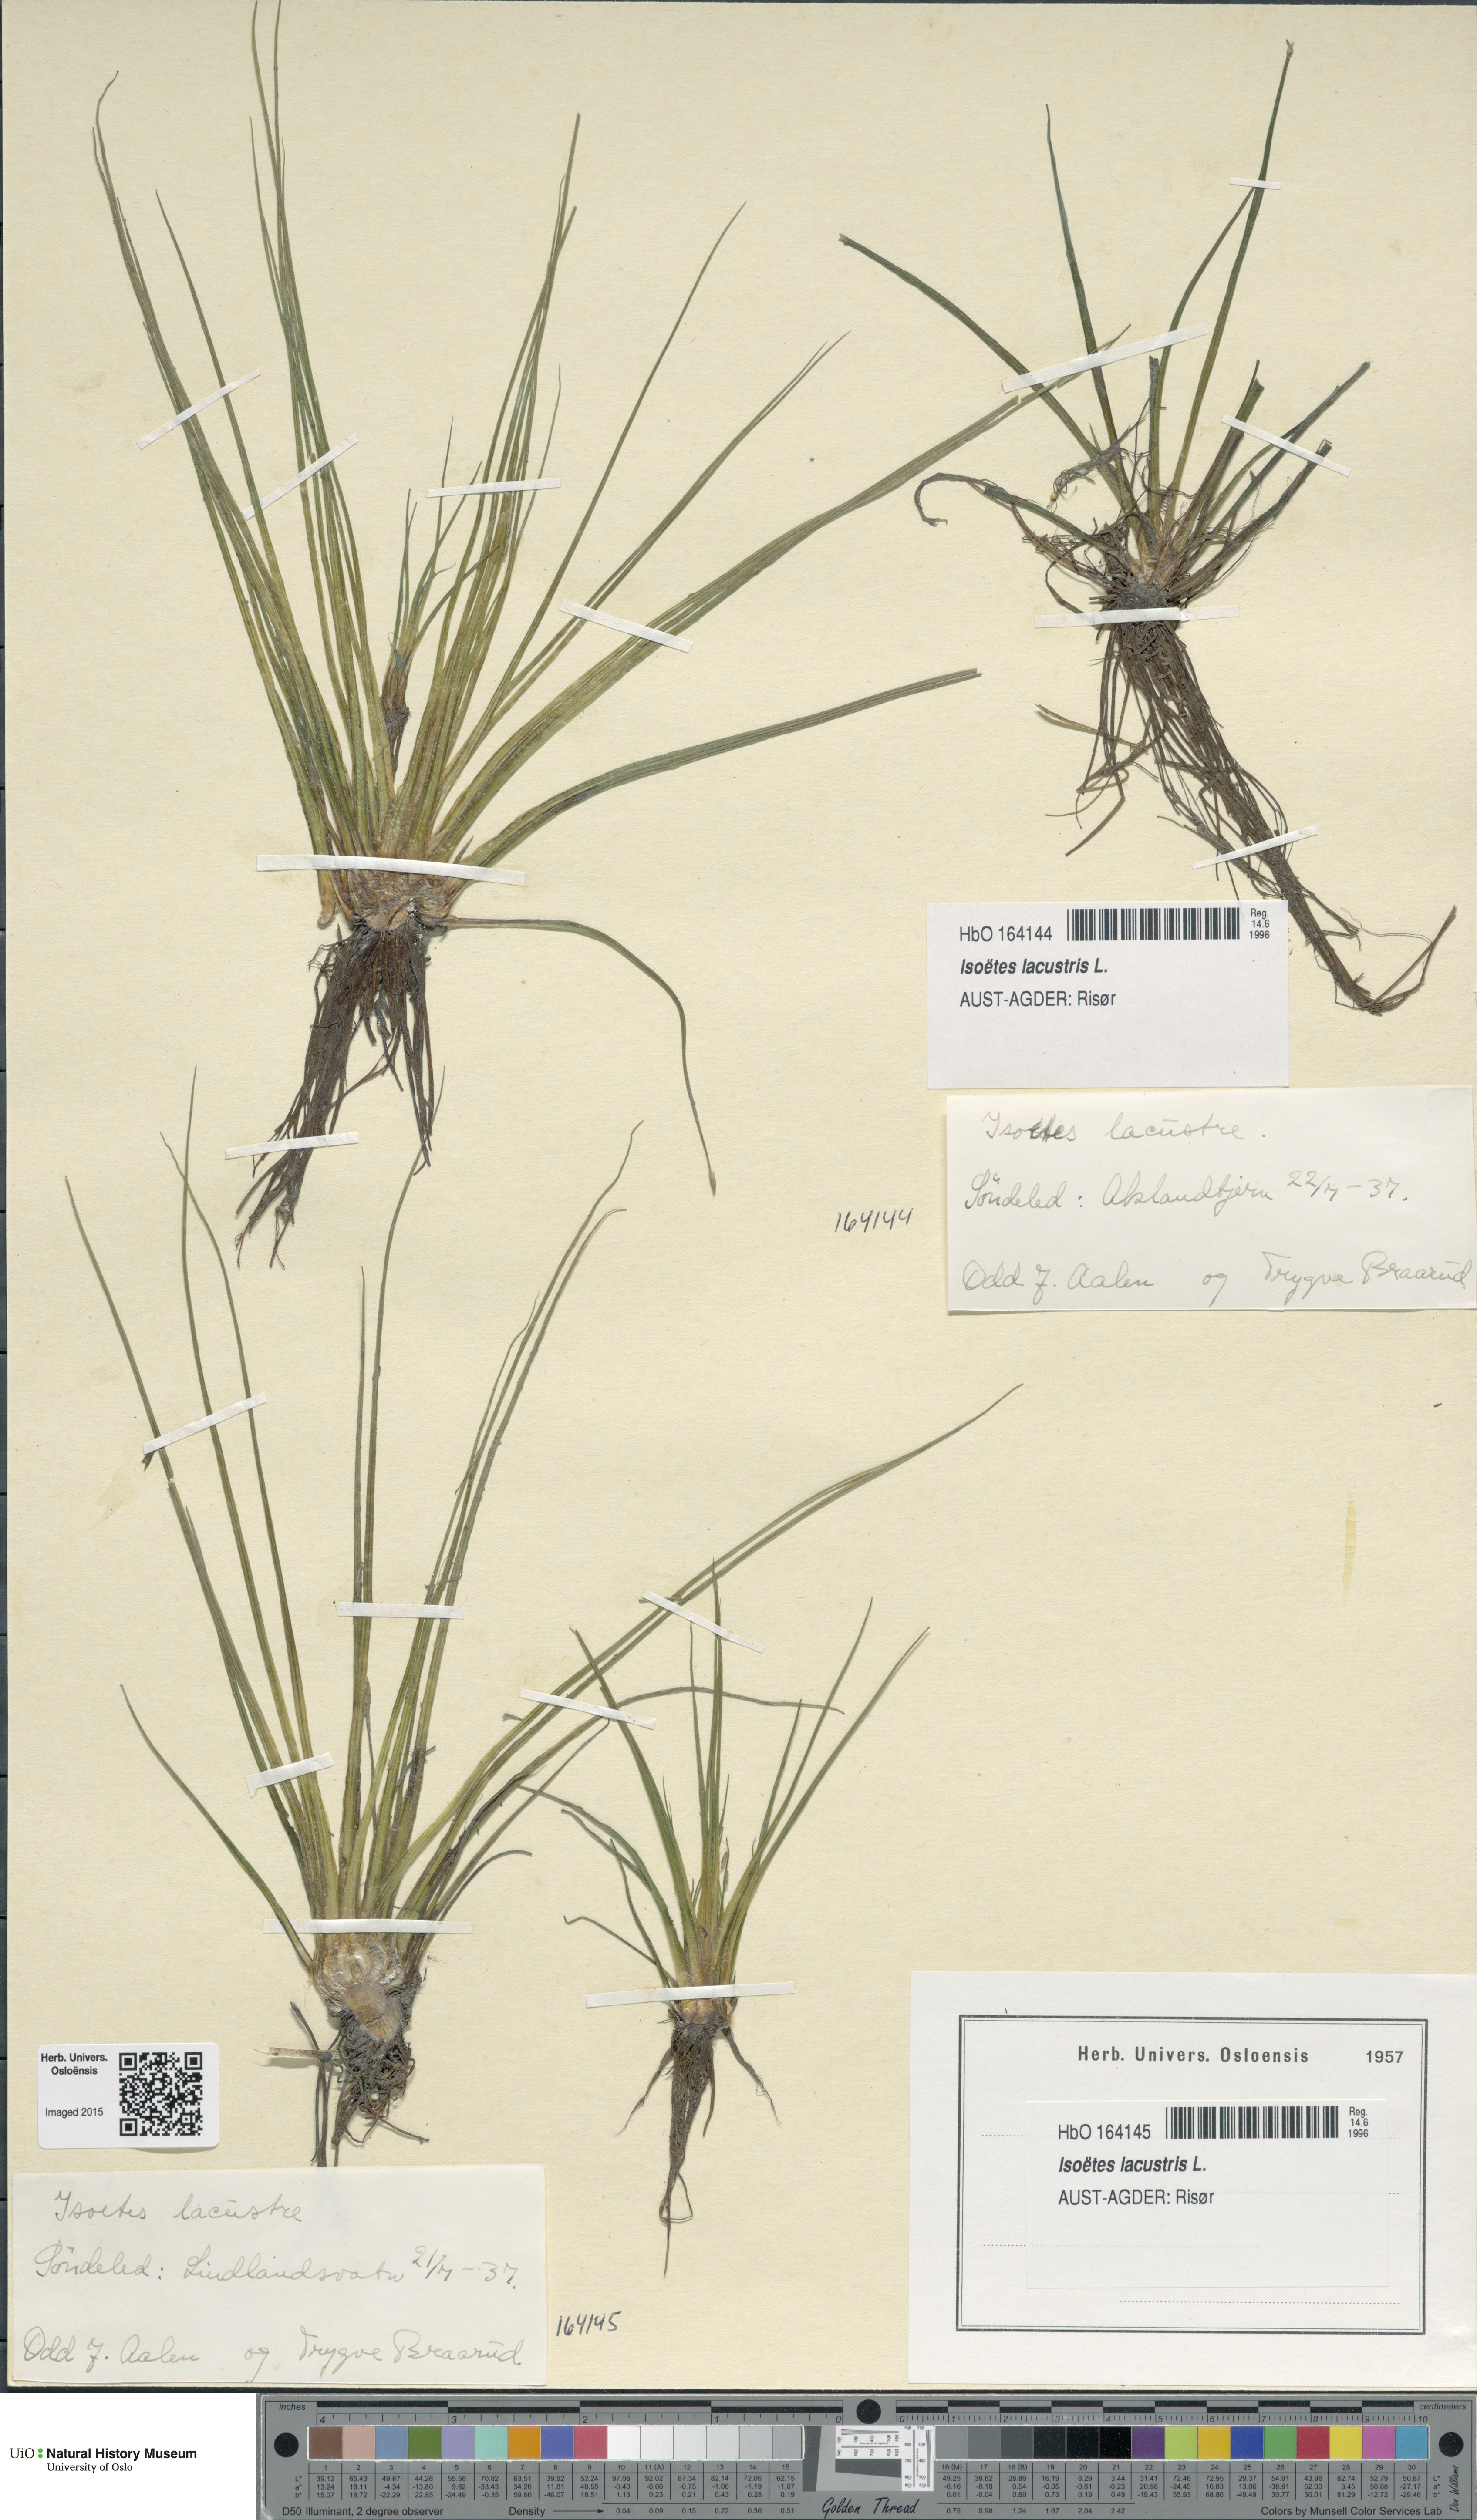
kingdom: Plantae
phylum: Tracheophyta
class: Lycopodiopsida
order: Isoetales
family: Isoetaceae
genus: Isoetes
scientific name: Isoetes lacustris
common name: Common quillwort
